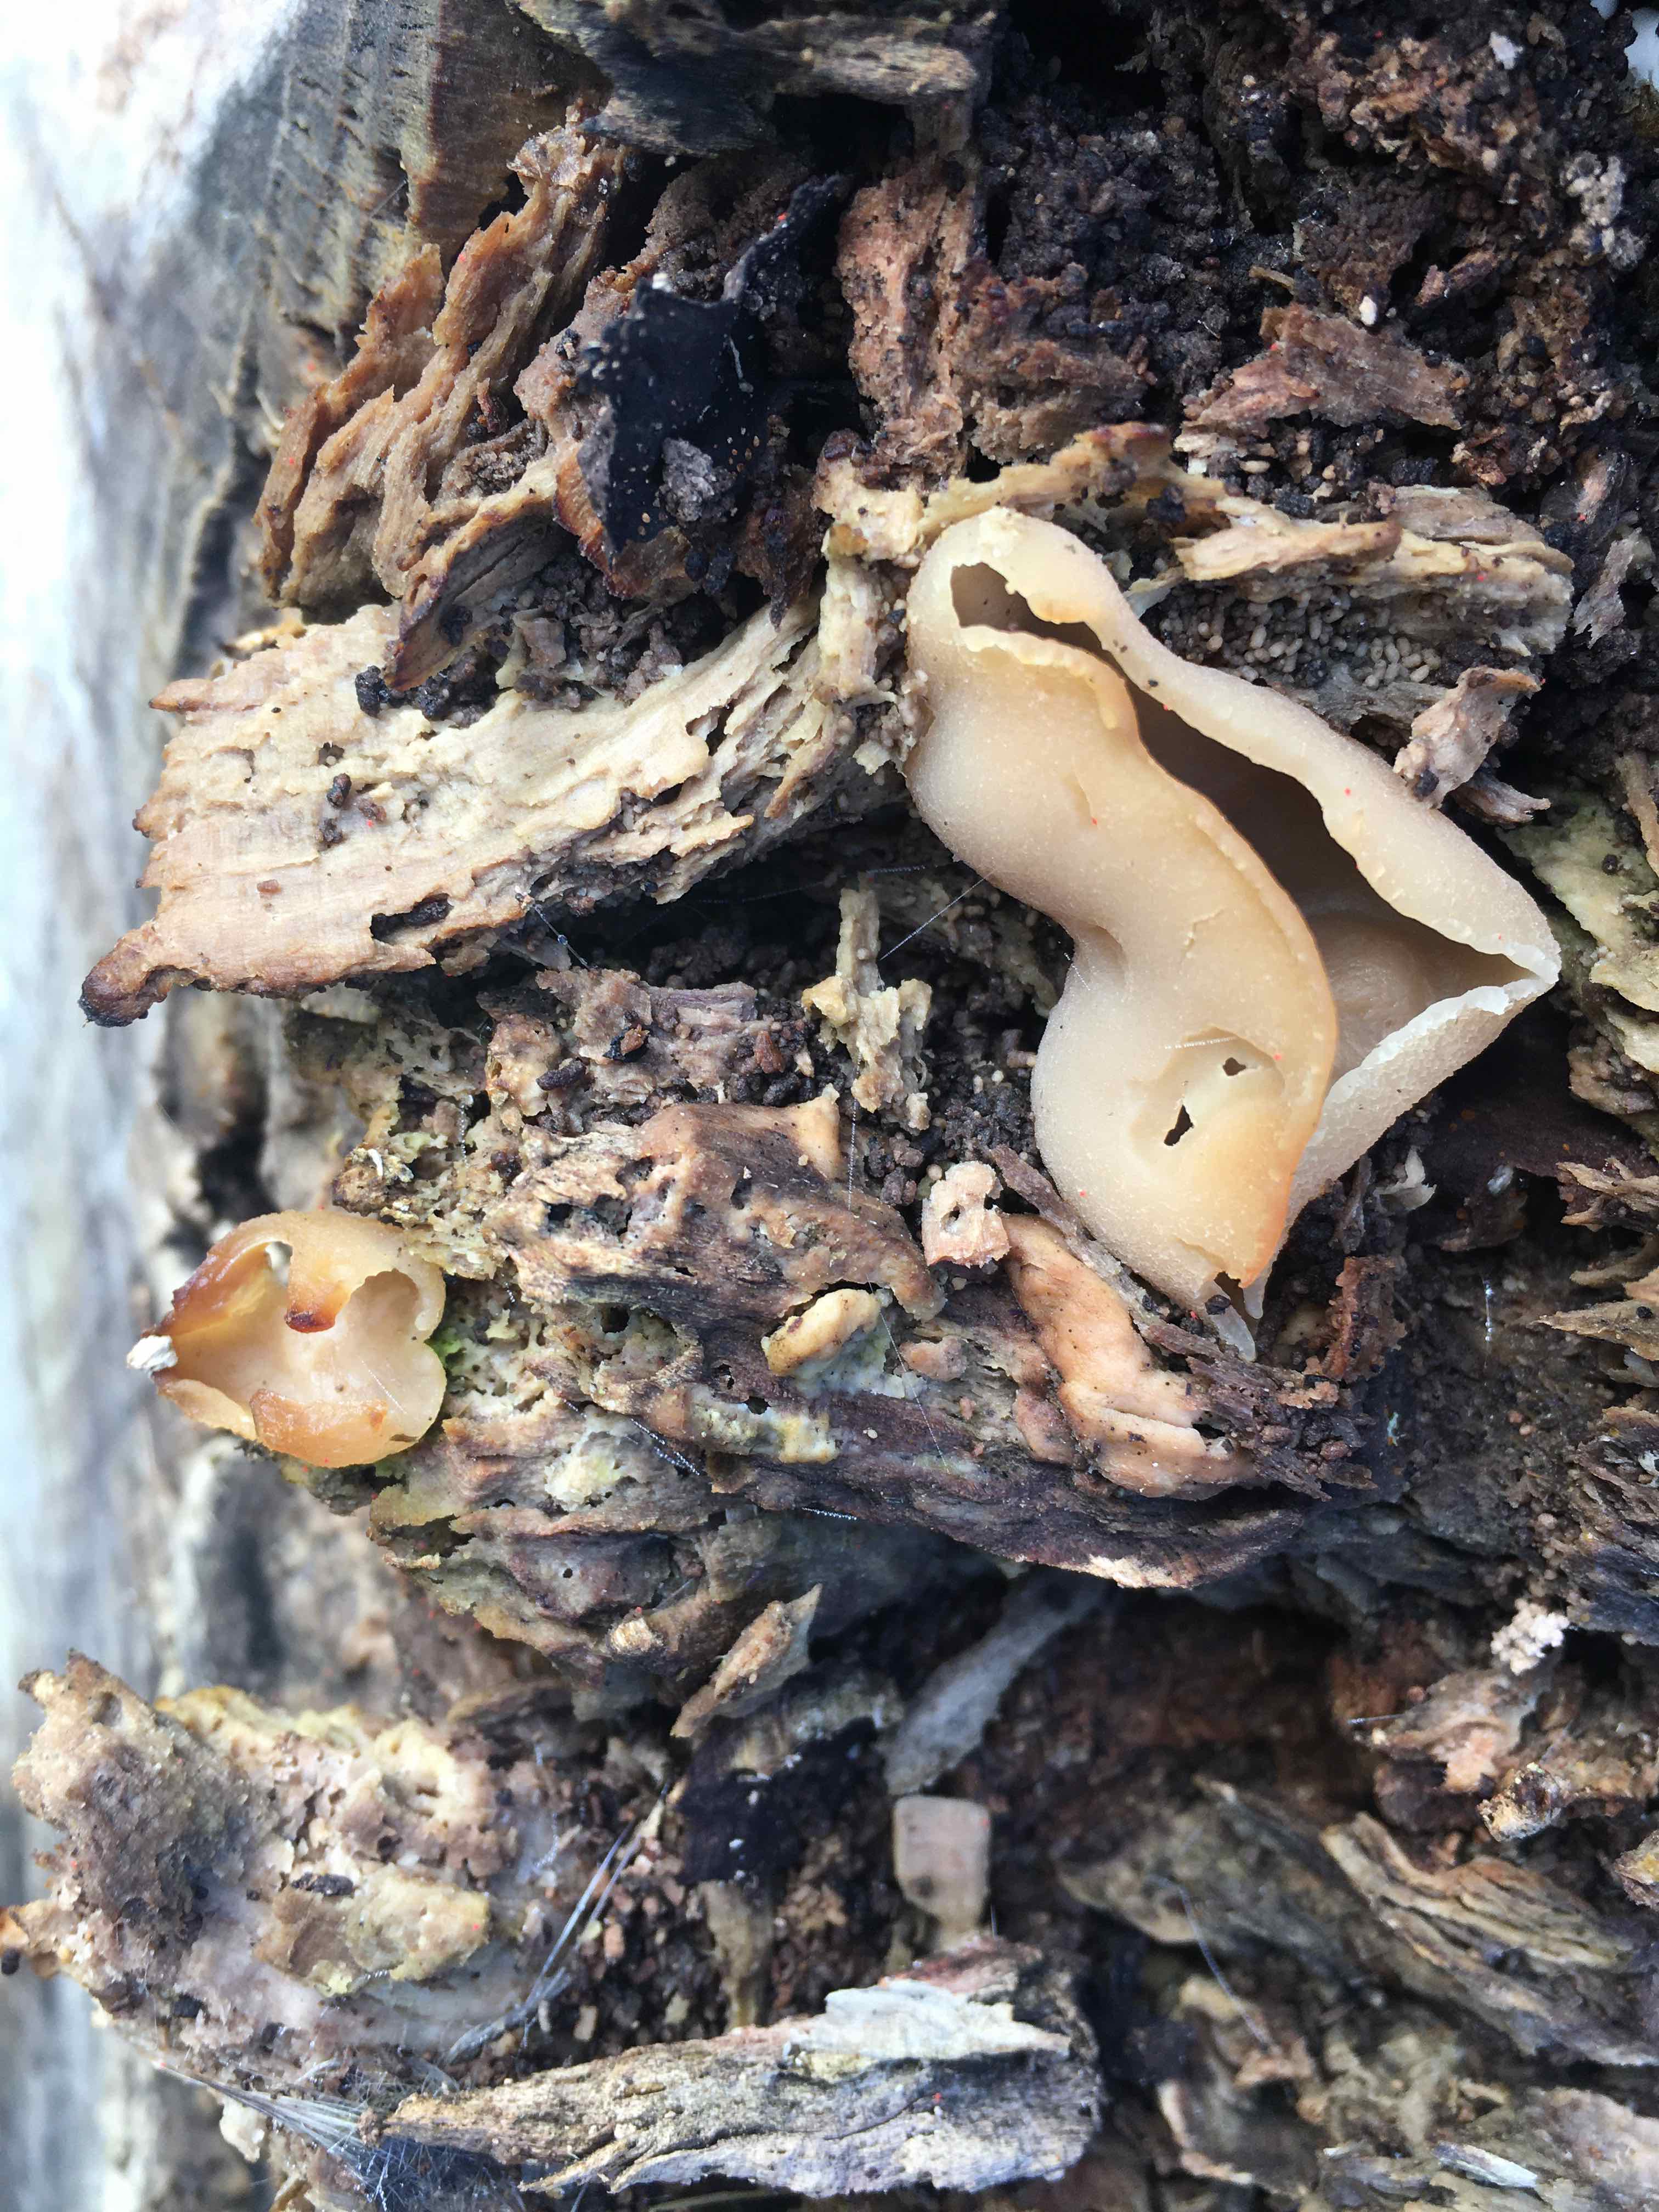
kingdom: Fungi
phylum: Ascomycota
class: Pezizomycetes
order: Pezizales
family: Pezizaceae
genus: Peziza
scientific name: Peziza varia
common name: Ved-bægersvamp
